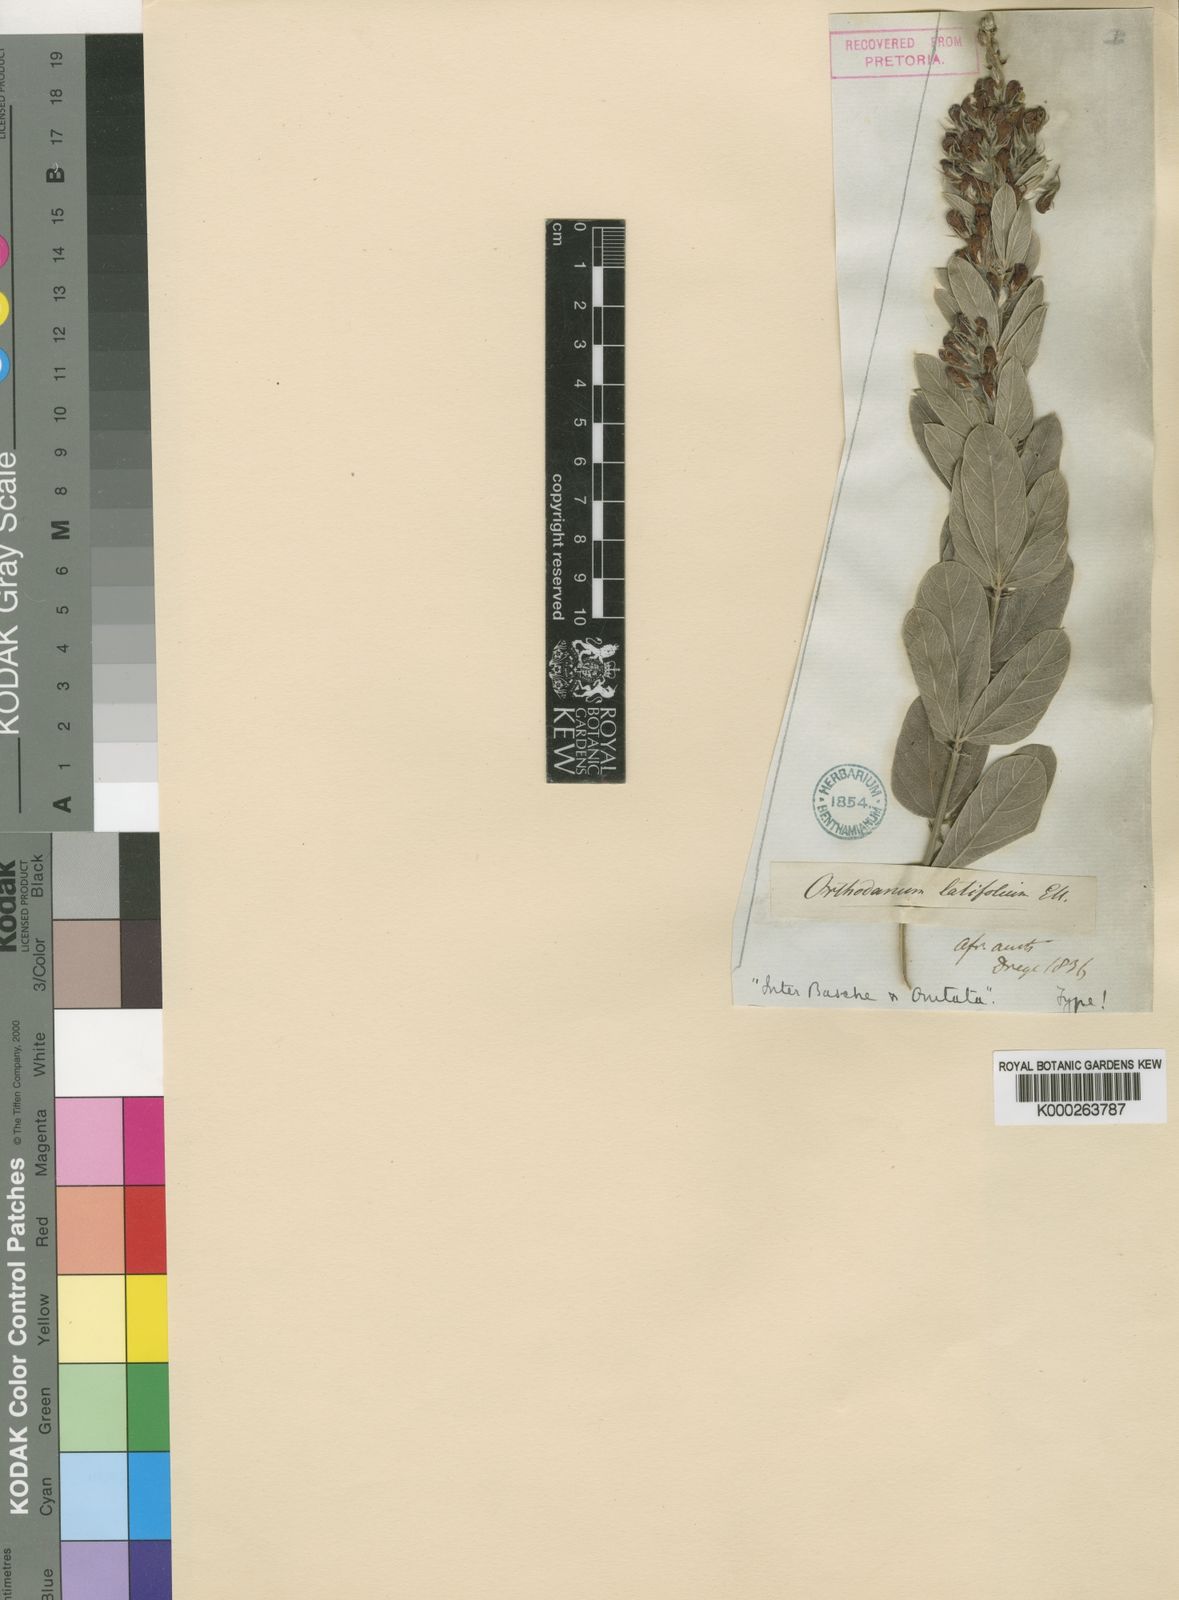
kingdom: Plantae
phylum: Tracheophyta
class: Magnoliopsida
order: Fabales
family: Fabaceae
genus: Rhynchosia
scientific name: Rhynchosia sordida
